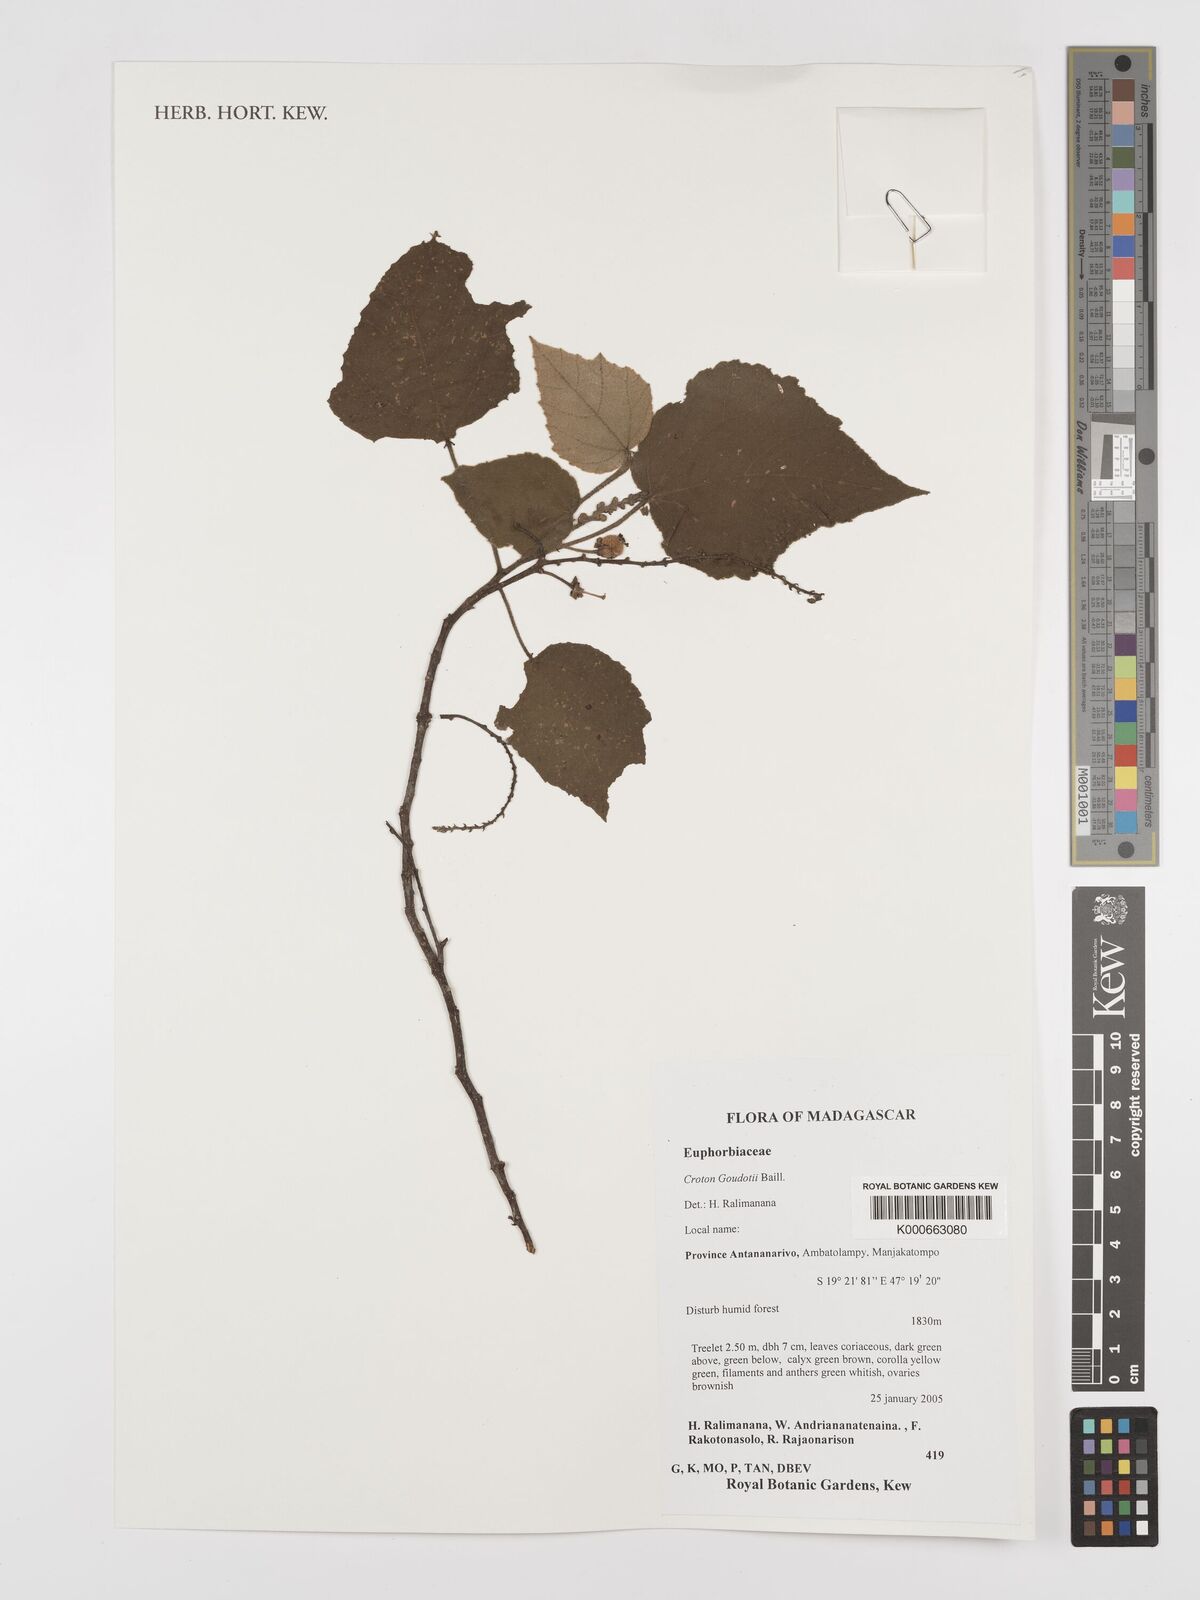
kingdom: Plantae
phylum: Tracheophyta
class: Magnoliopsida
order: Malpighiales
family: Euphorbiaceae
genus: Croton
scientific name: Croton goudotii
